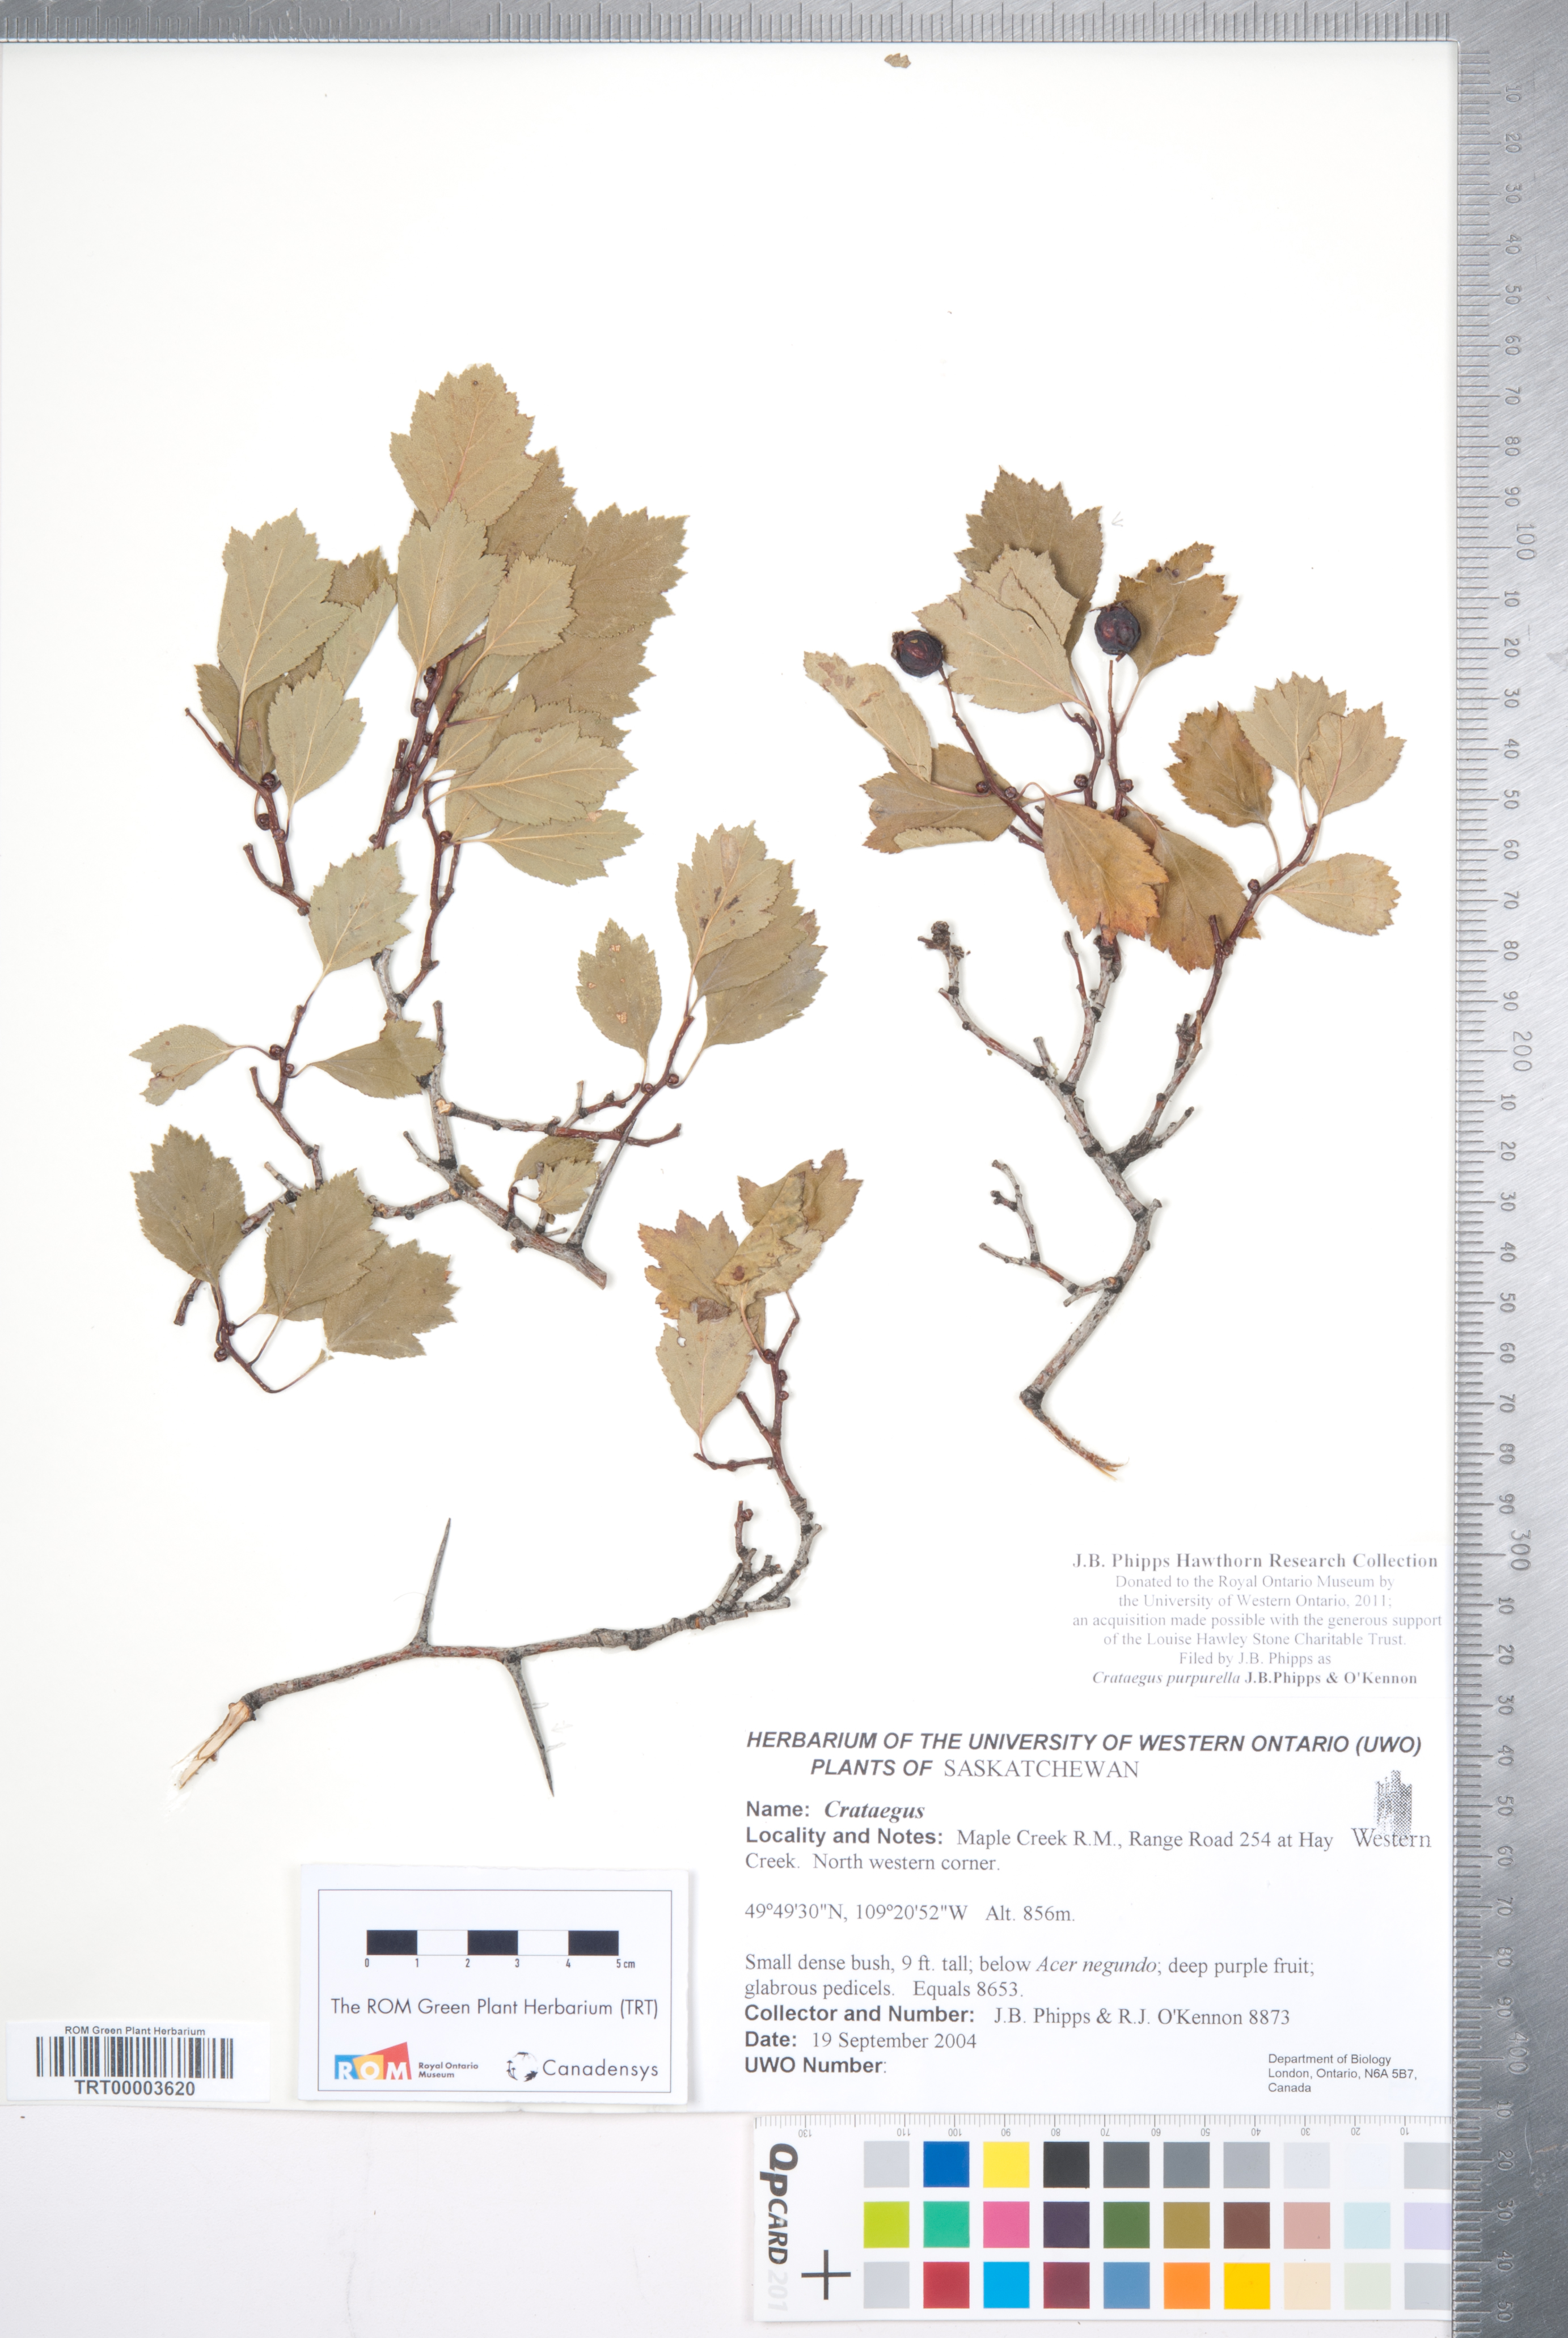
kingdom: Plantae
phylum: Tracheophyta
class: Magnoliopsida
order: Rosales
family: Rosaceae
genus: Crataegus
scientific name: Crataegus purpurella
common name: Loch lomond hawthorn
